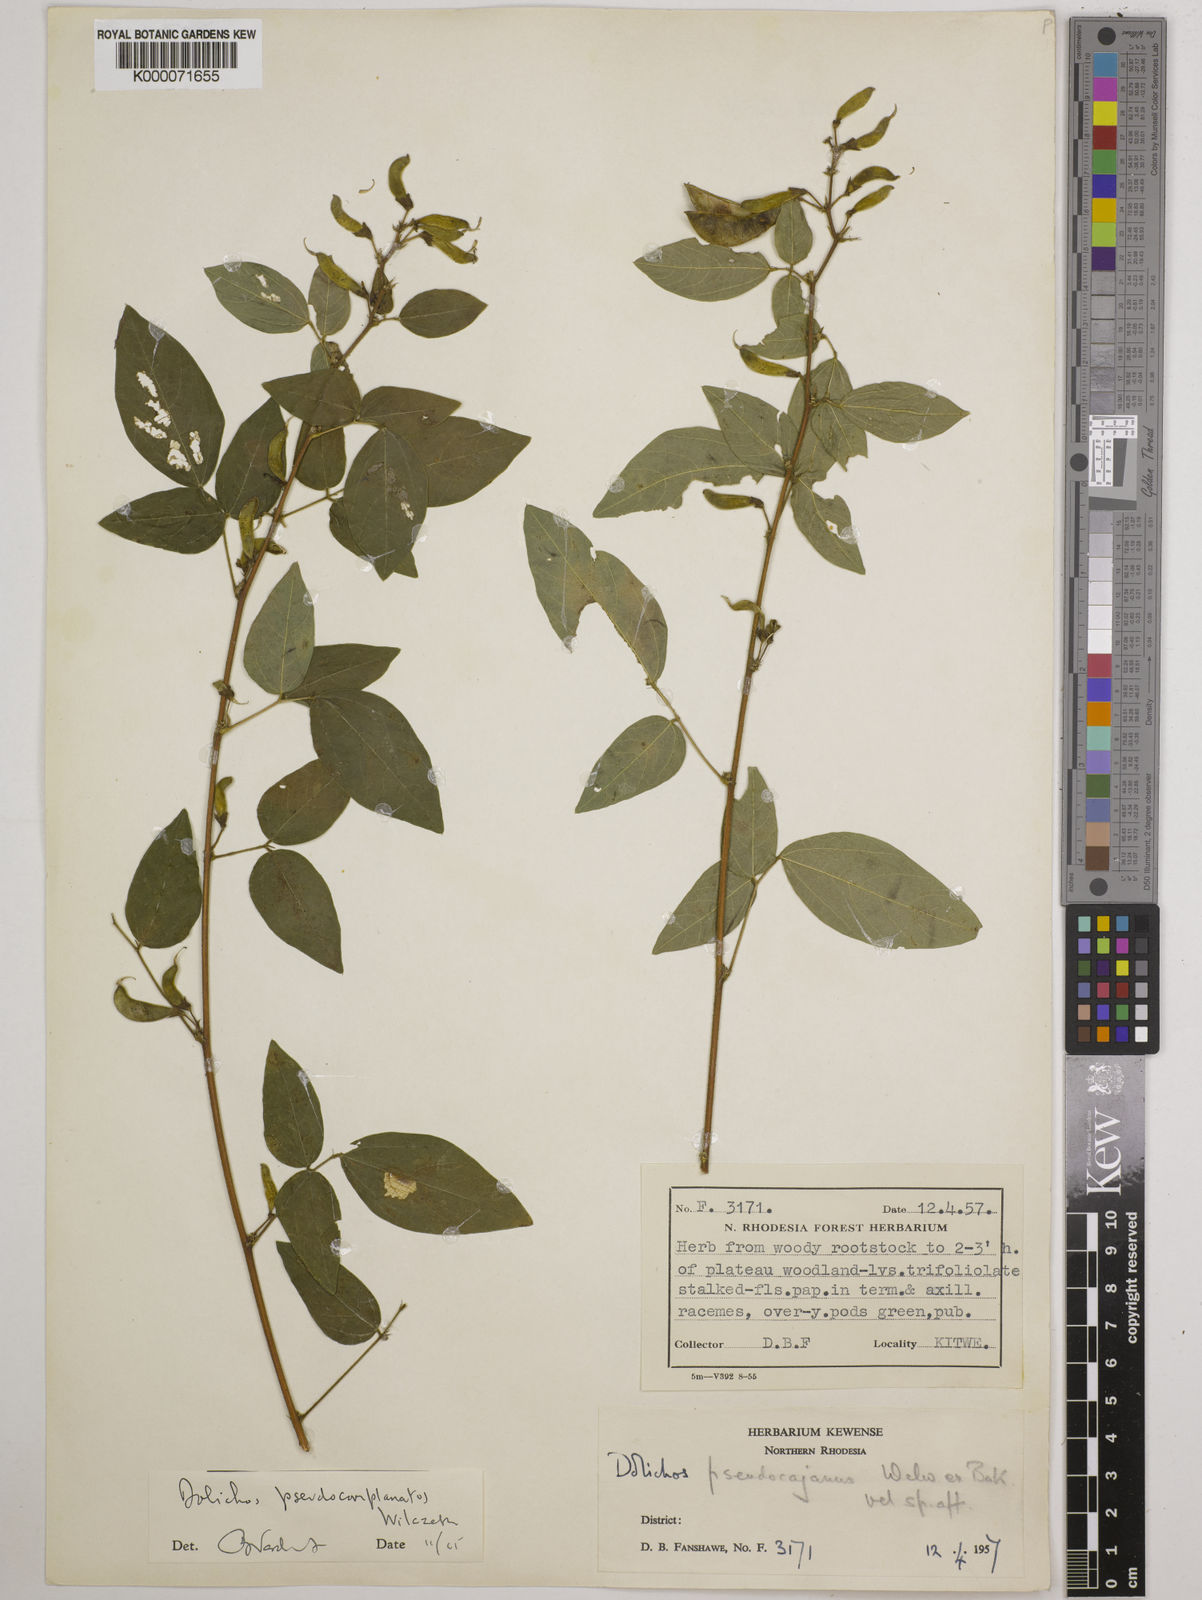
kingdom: Plantae
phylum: Tracheophyta
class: Magnoliopsida
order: Fabales
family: Fabaceae
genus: Dolichos
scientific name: Dolichos
